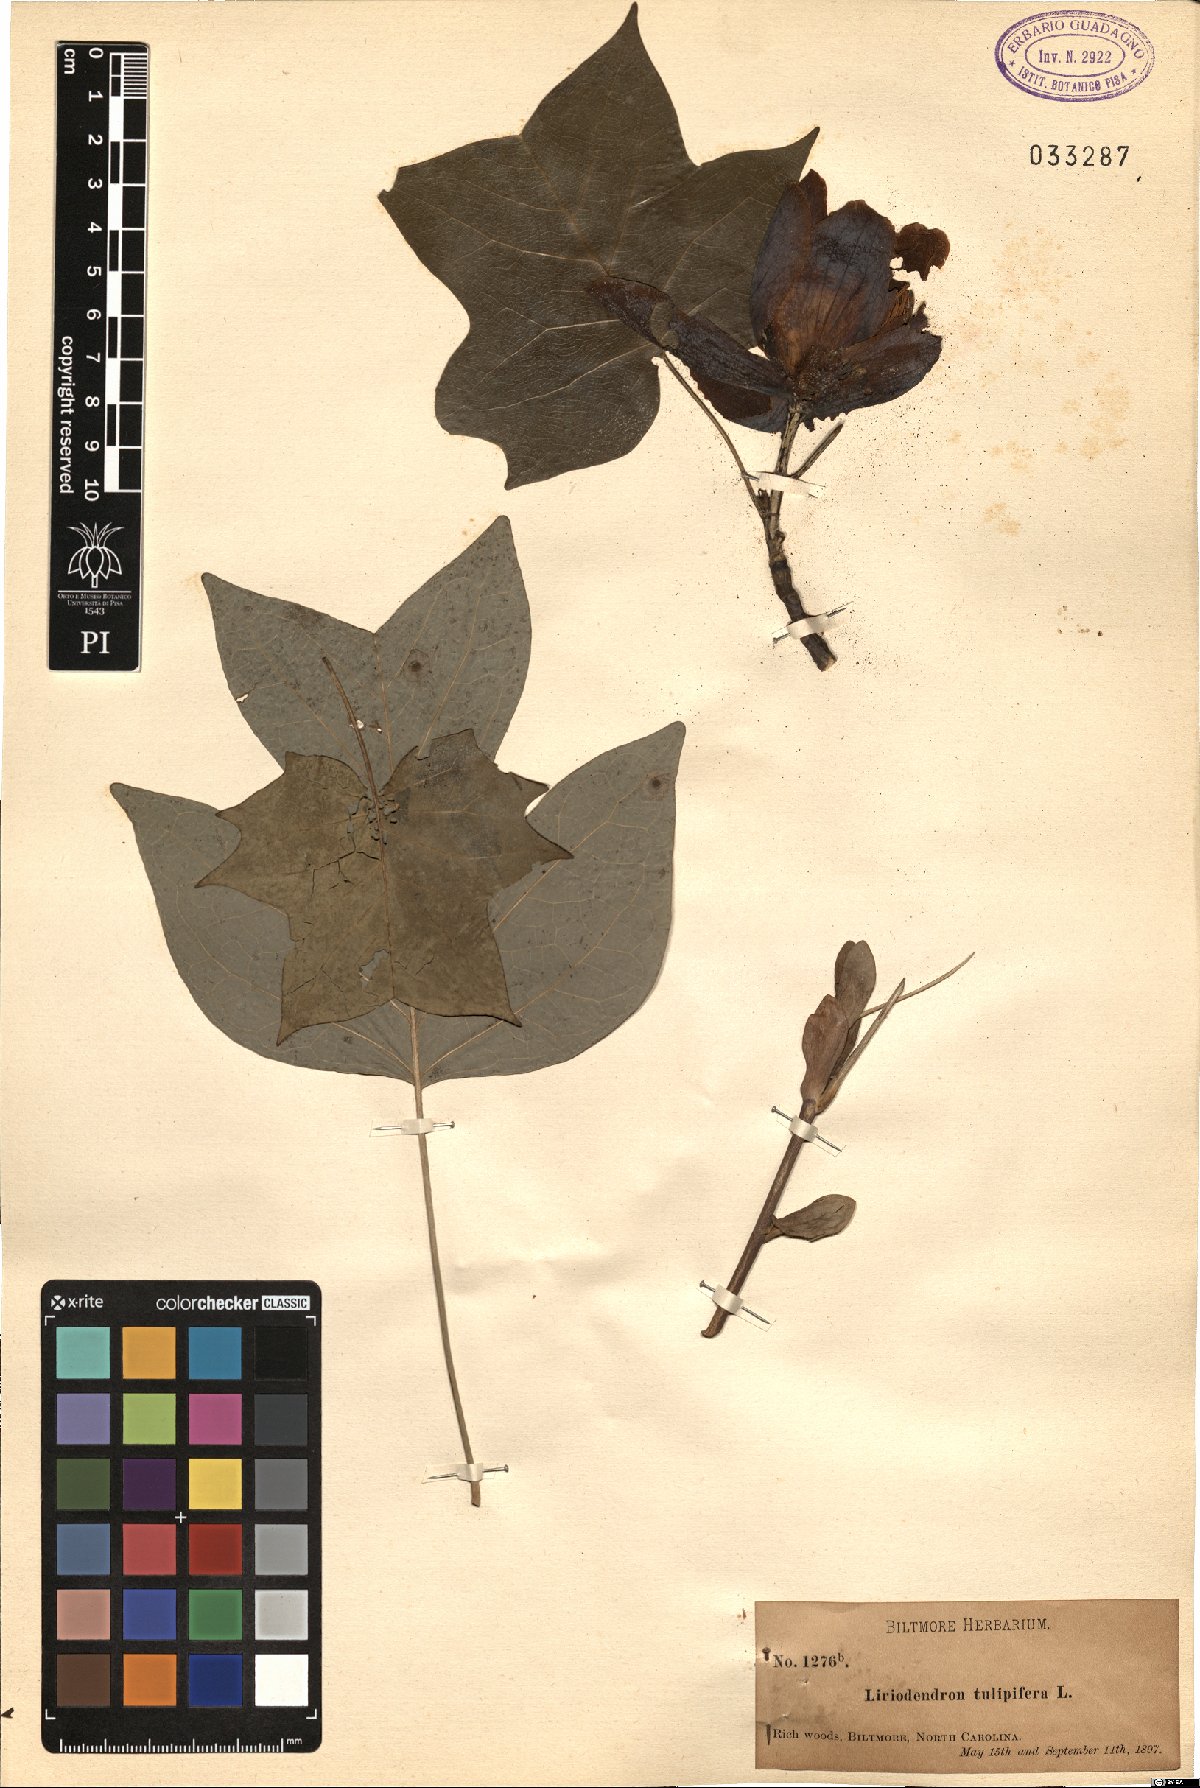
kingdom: Plantae
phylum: Tracheophyta
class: Magnoliopsida
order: Magnoliales
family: Magnoliaceae
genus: Liriodendron
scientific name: Liriodendron tulipifera
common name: Tulip tree
